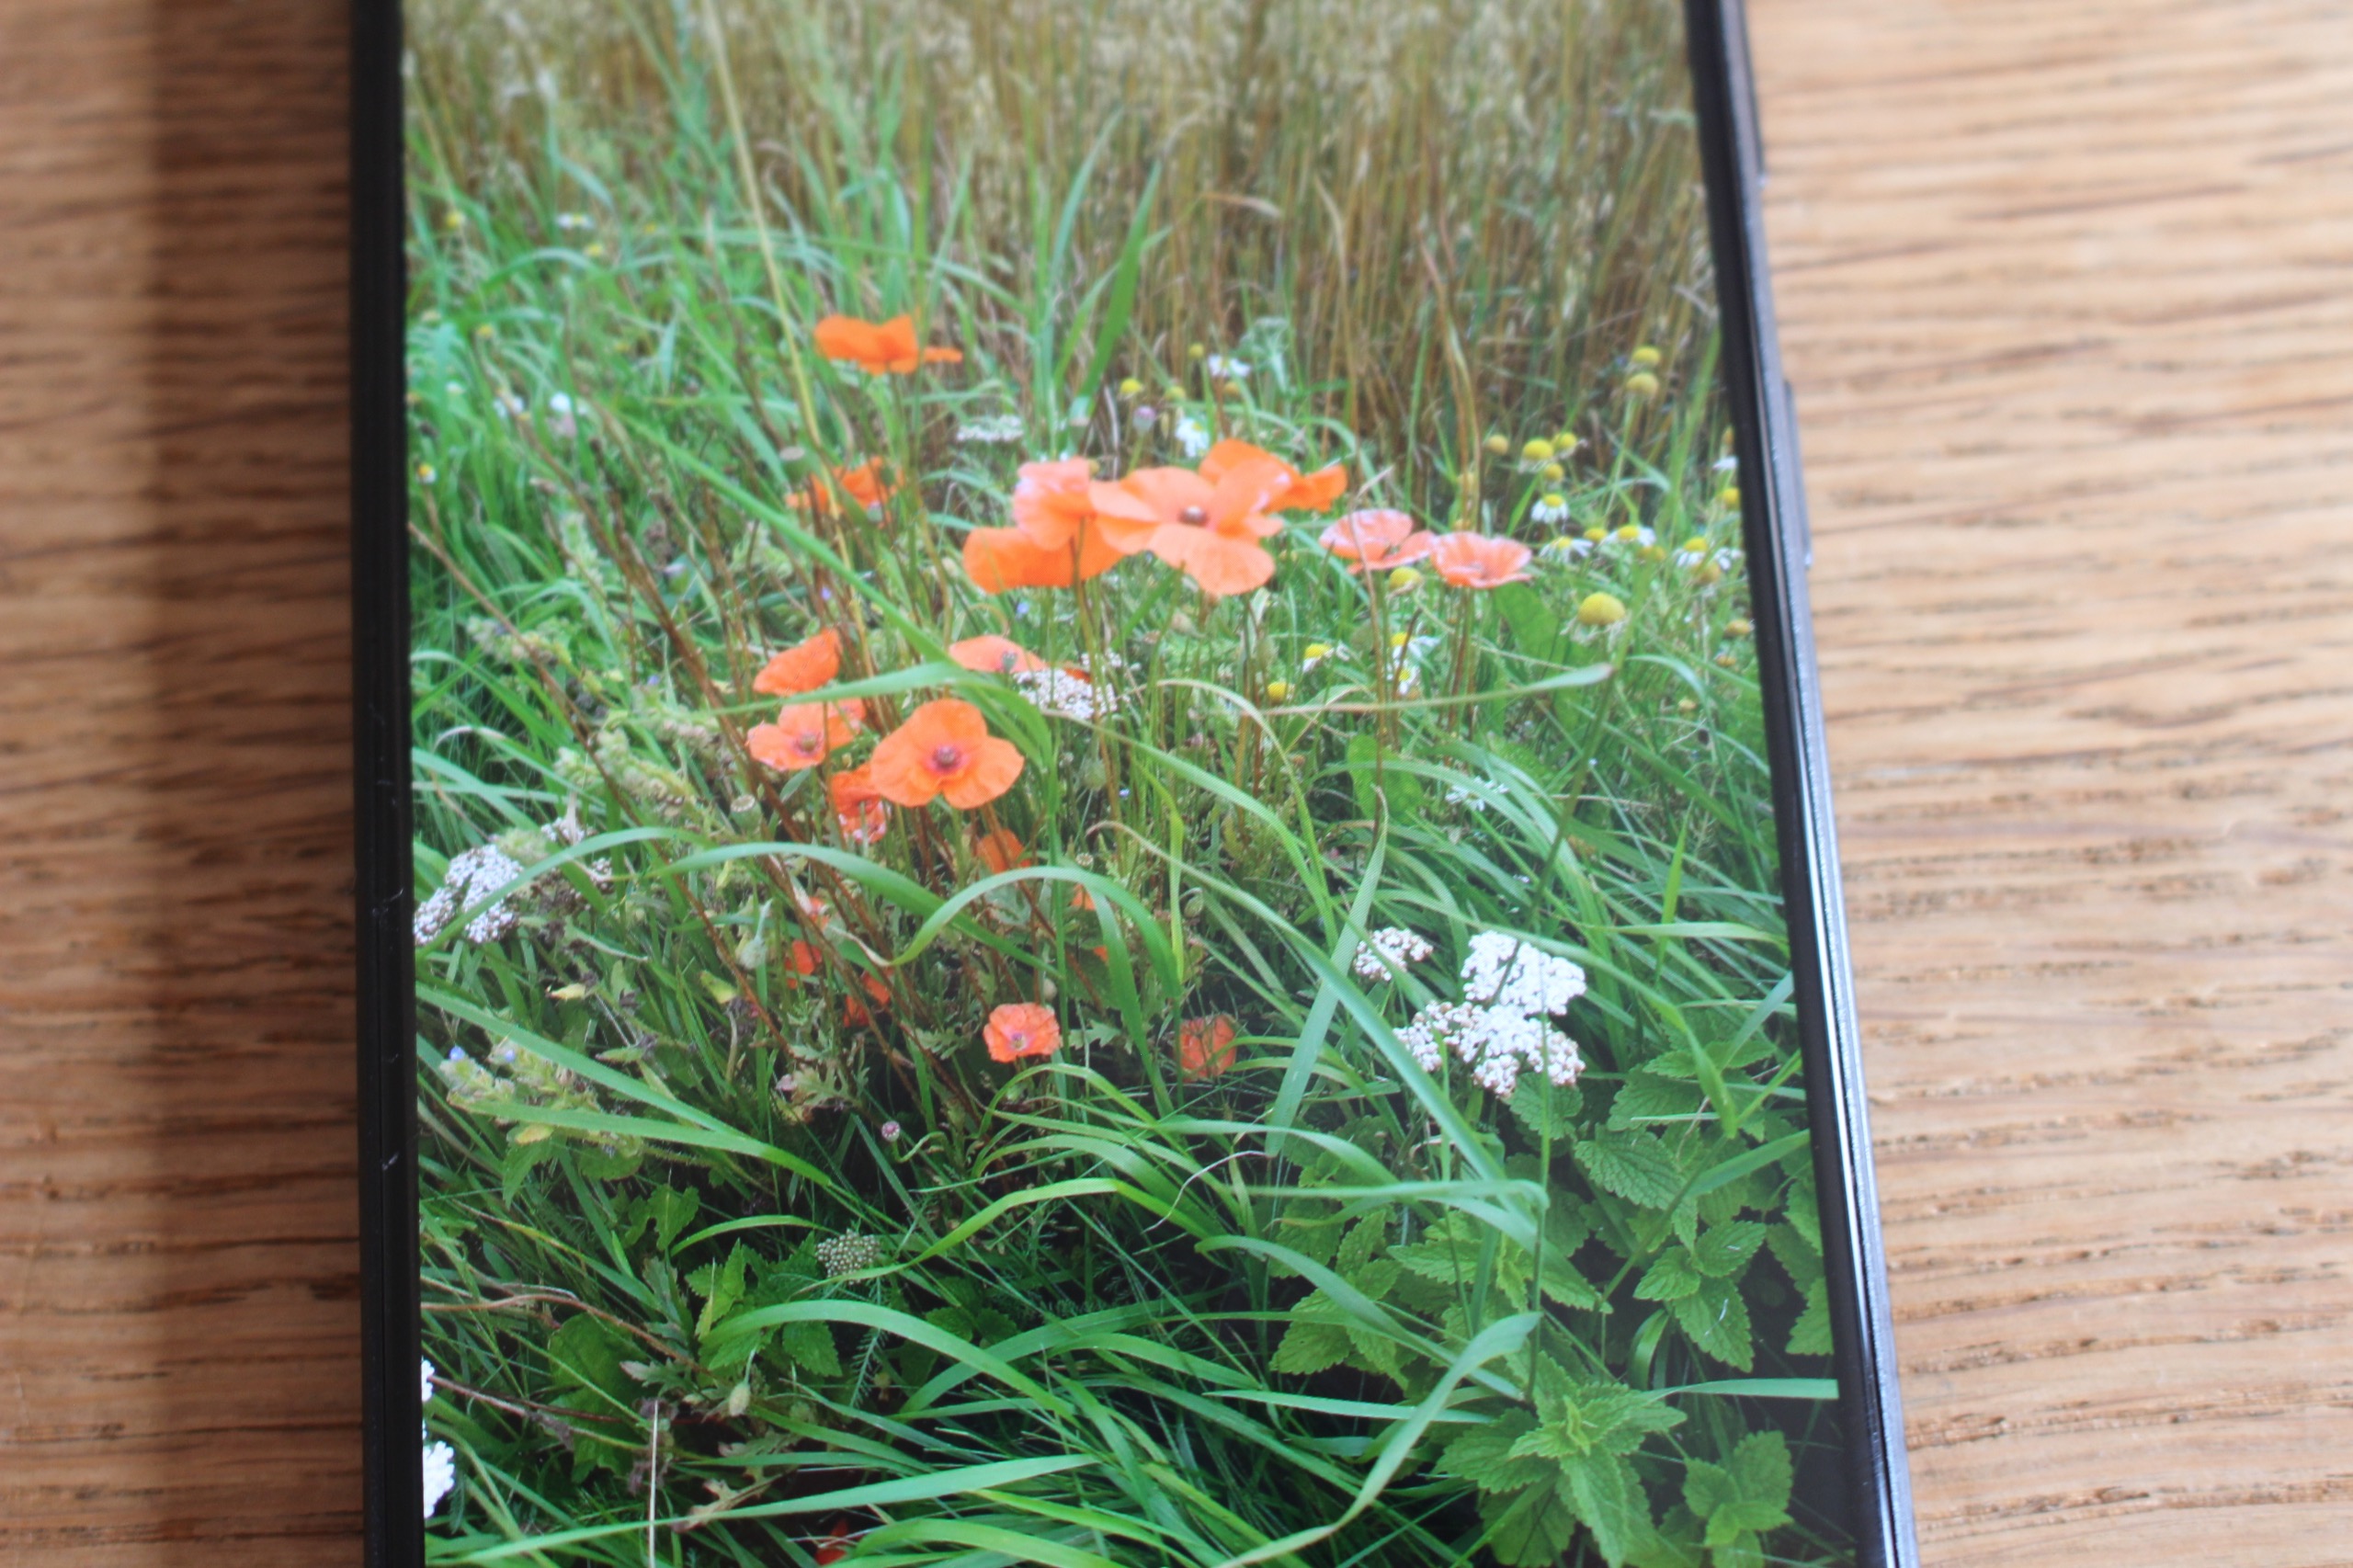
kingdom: Plantae
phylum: Tracheophyta
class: Magnoliopsida
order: Ranunculales
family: Papaveraceae
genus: Papaver
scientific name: Papaver rhoeas
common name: Korn-valmue
